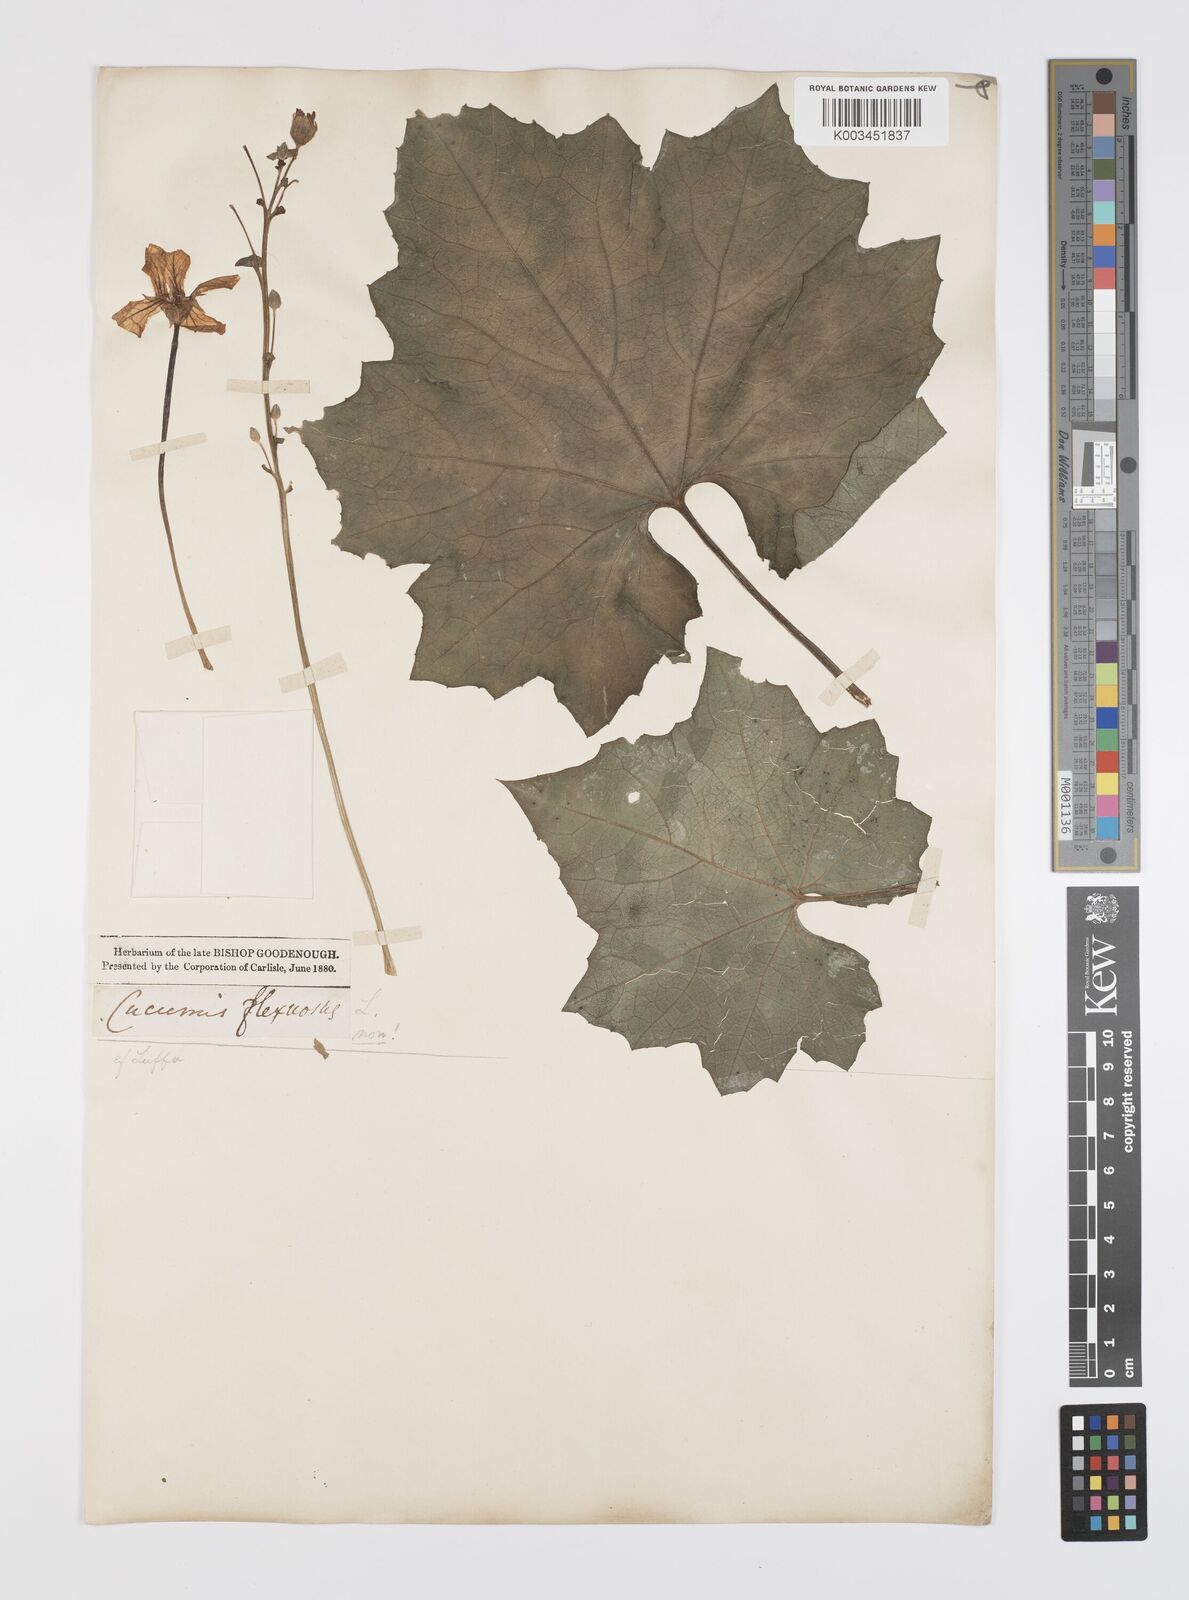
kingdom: Plantae
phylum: Tracheophyta
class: Magnoliopsida
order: Cucurbitales
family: Cucurbitaceae
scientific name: Cucurbitaceae
